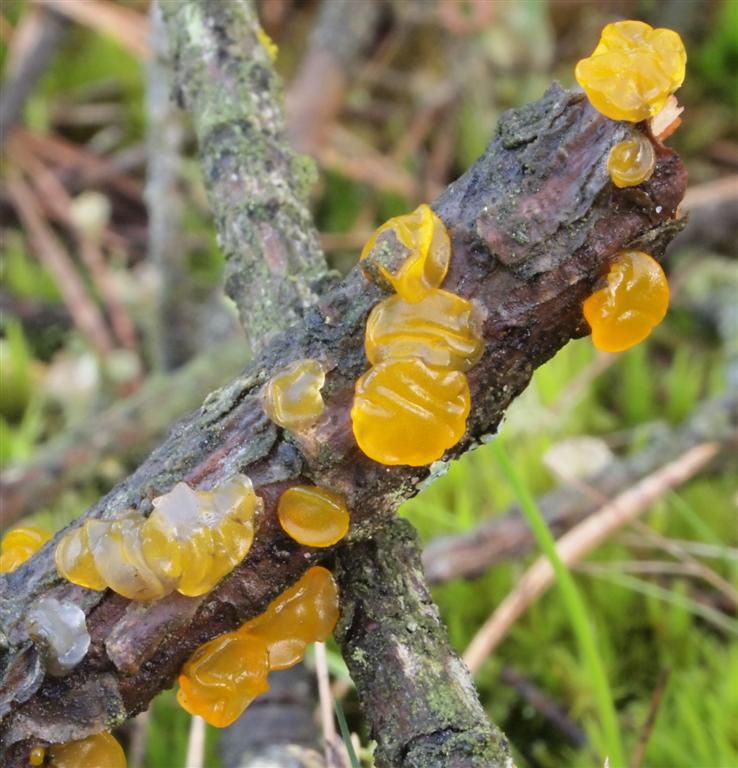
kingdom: Fungi
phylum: Basidiomycota
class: Dacrymycetes
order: Dacrymycetales
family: Dacrymycetaceae
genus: Dacrymyces
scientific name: Dacrymyces lacrymalis
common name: rynket tåresvamp
